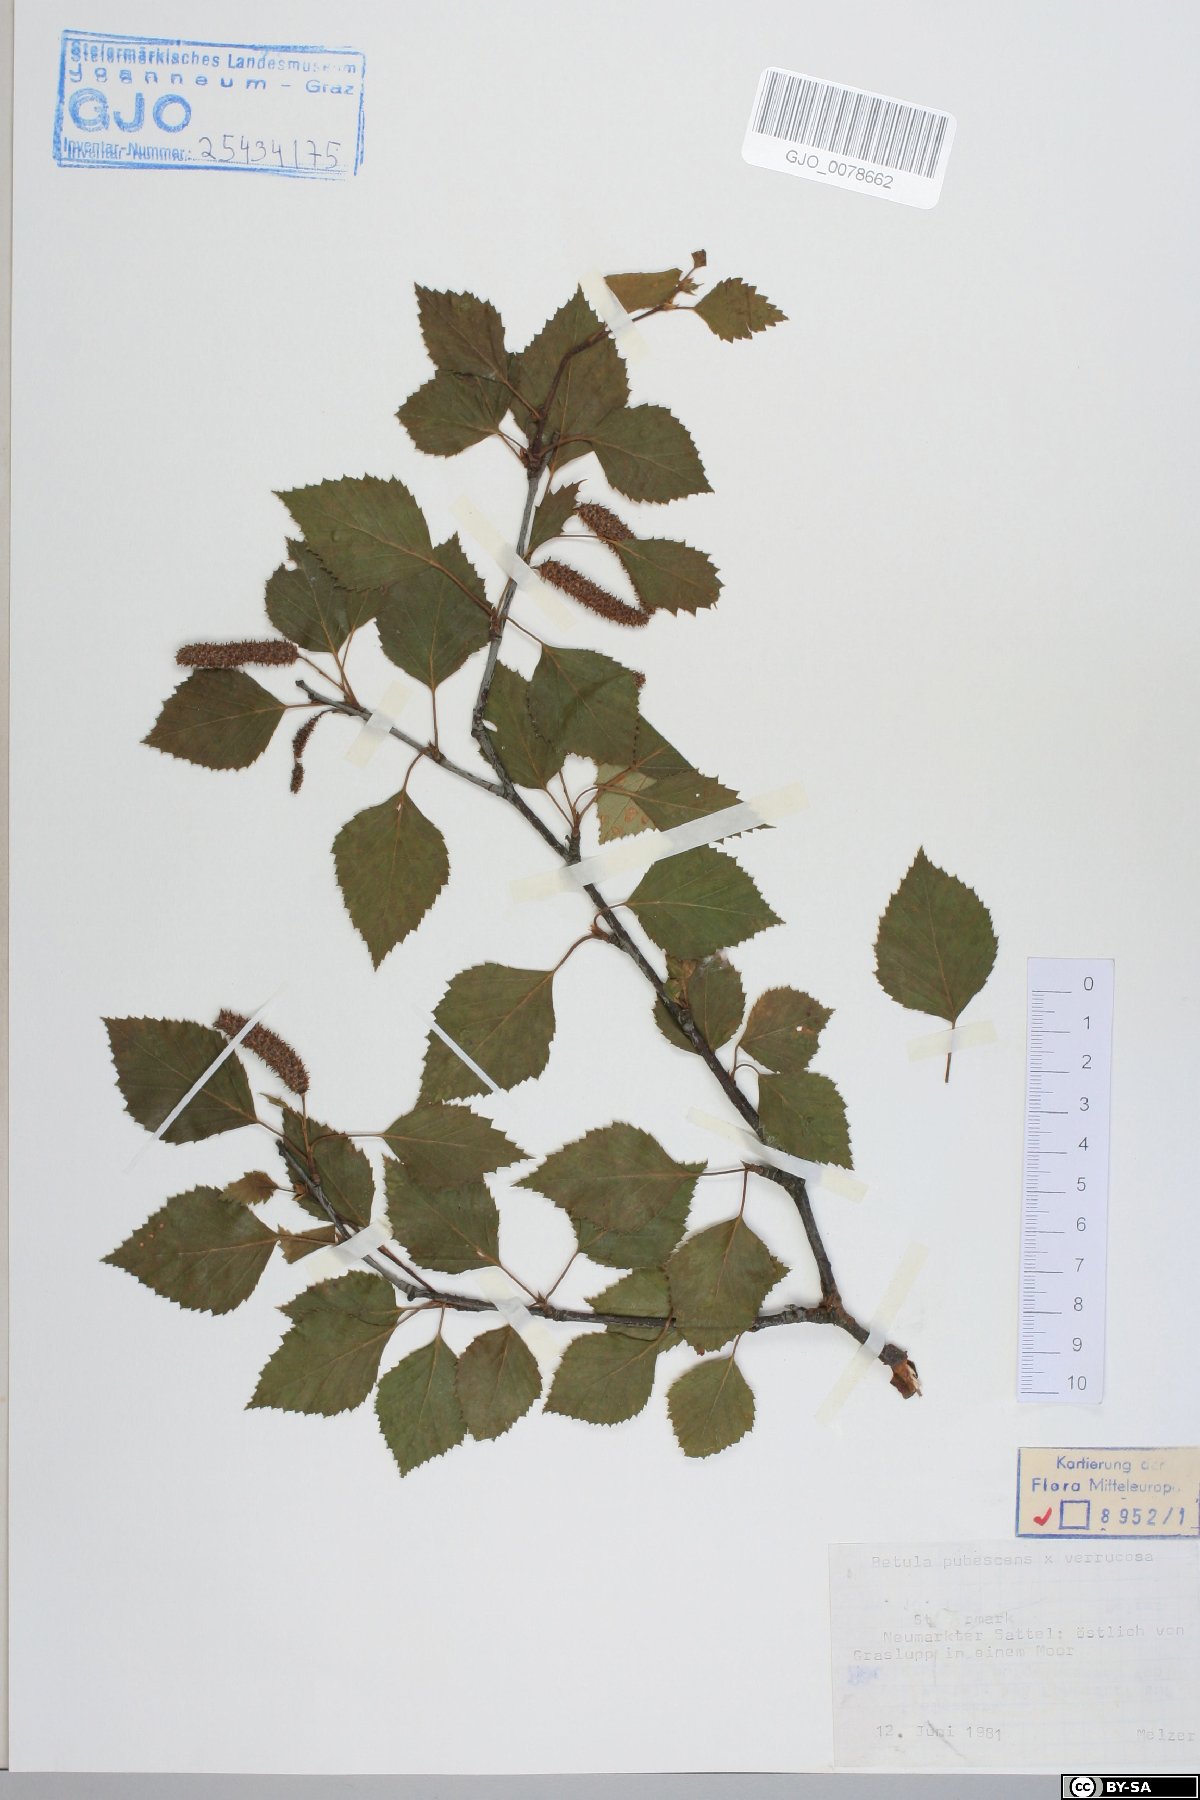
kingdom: Plantae
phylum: Tracheophyta
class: Magnoliopsida
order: Fagales
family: Betulaceae
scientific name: Betulaceae
